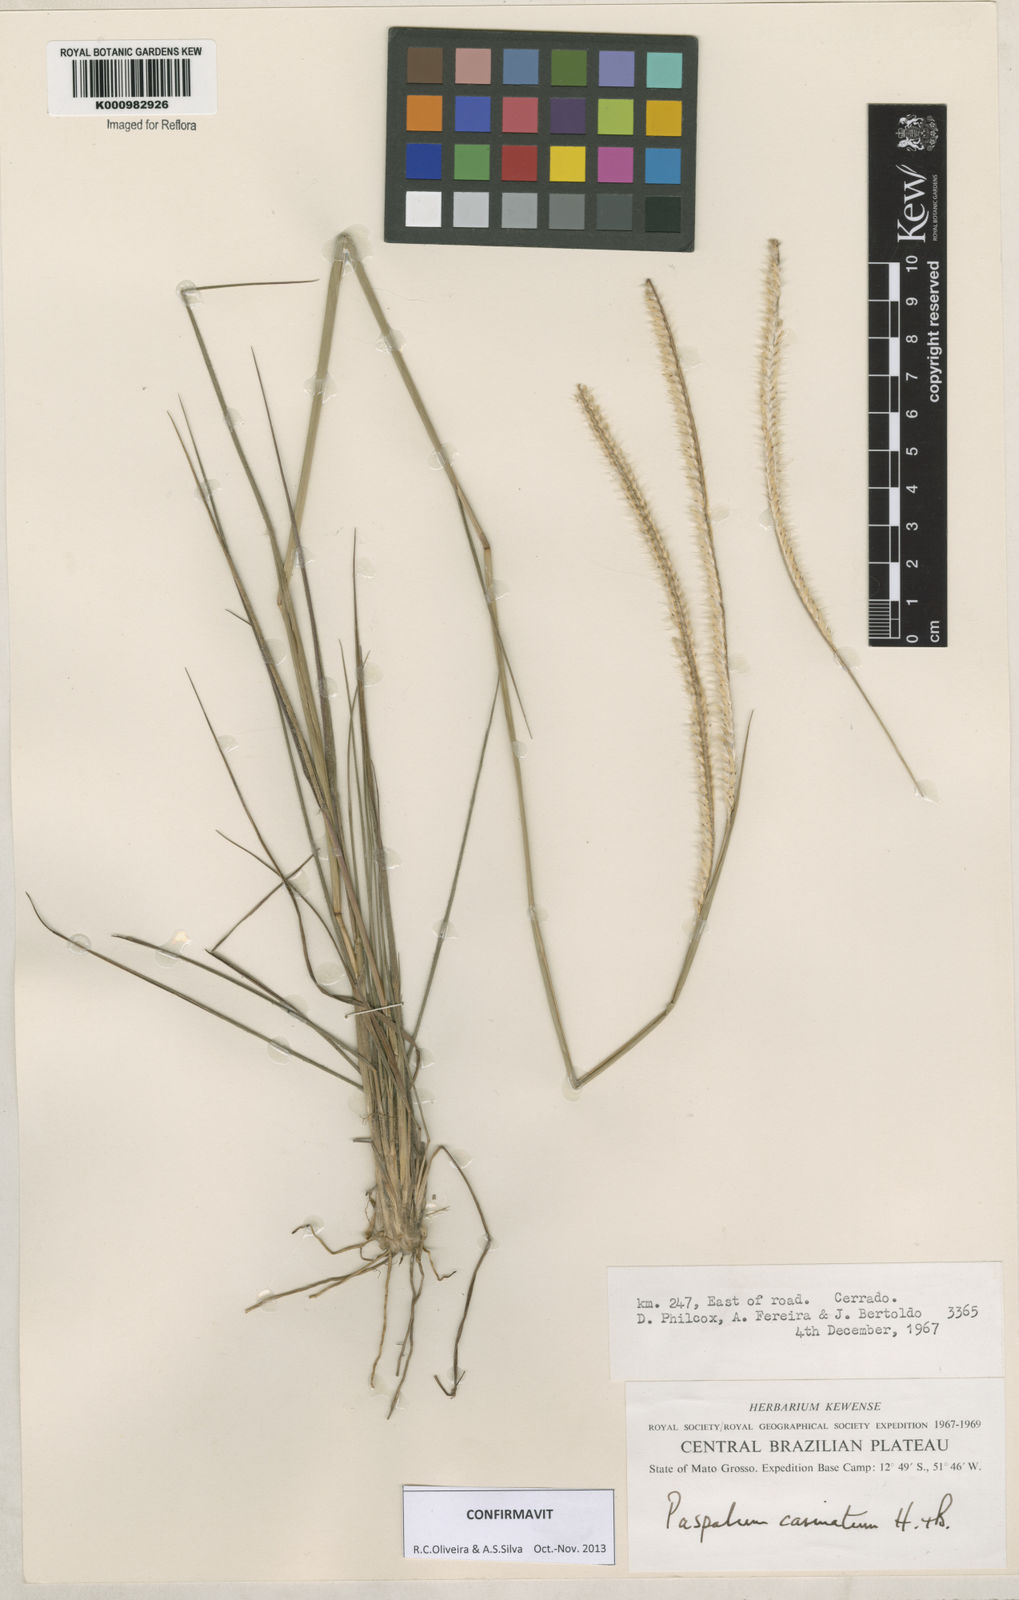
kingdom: Plantae
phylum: Tracheophyta
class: Liliopsida
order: Poales
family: Poaceae
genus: Paspalum
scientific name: Paspalum
